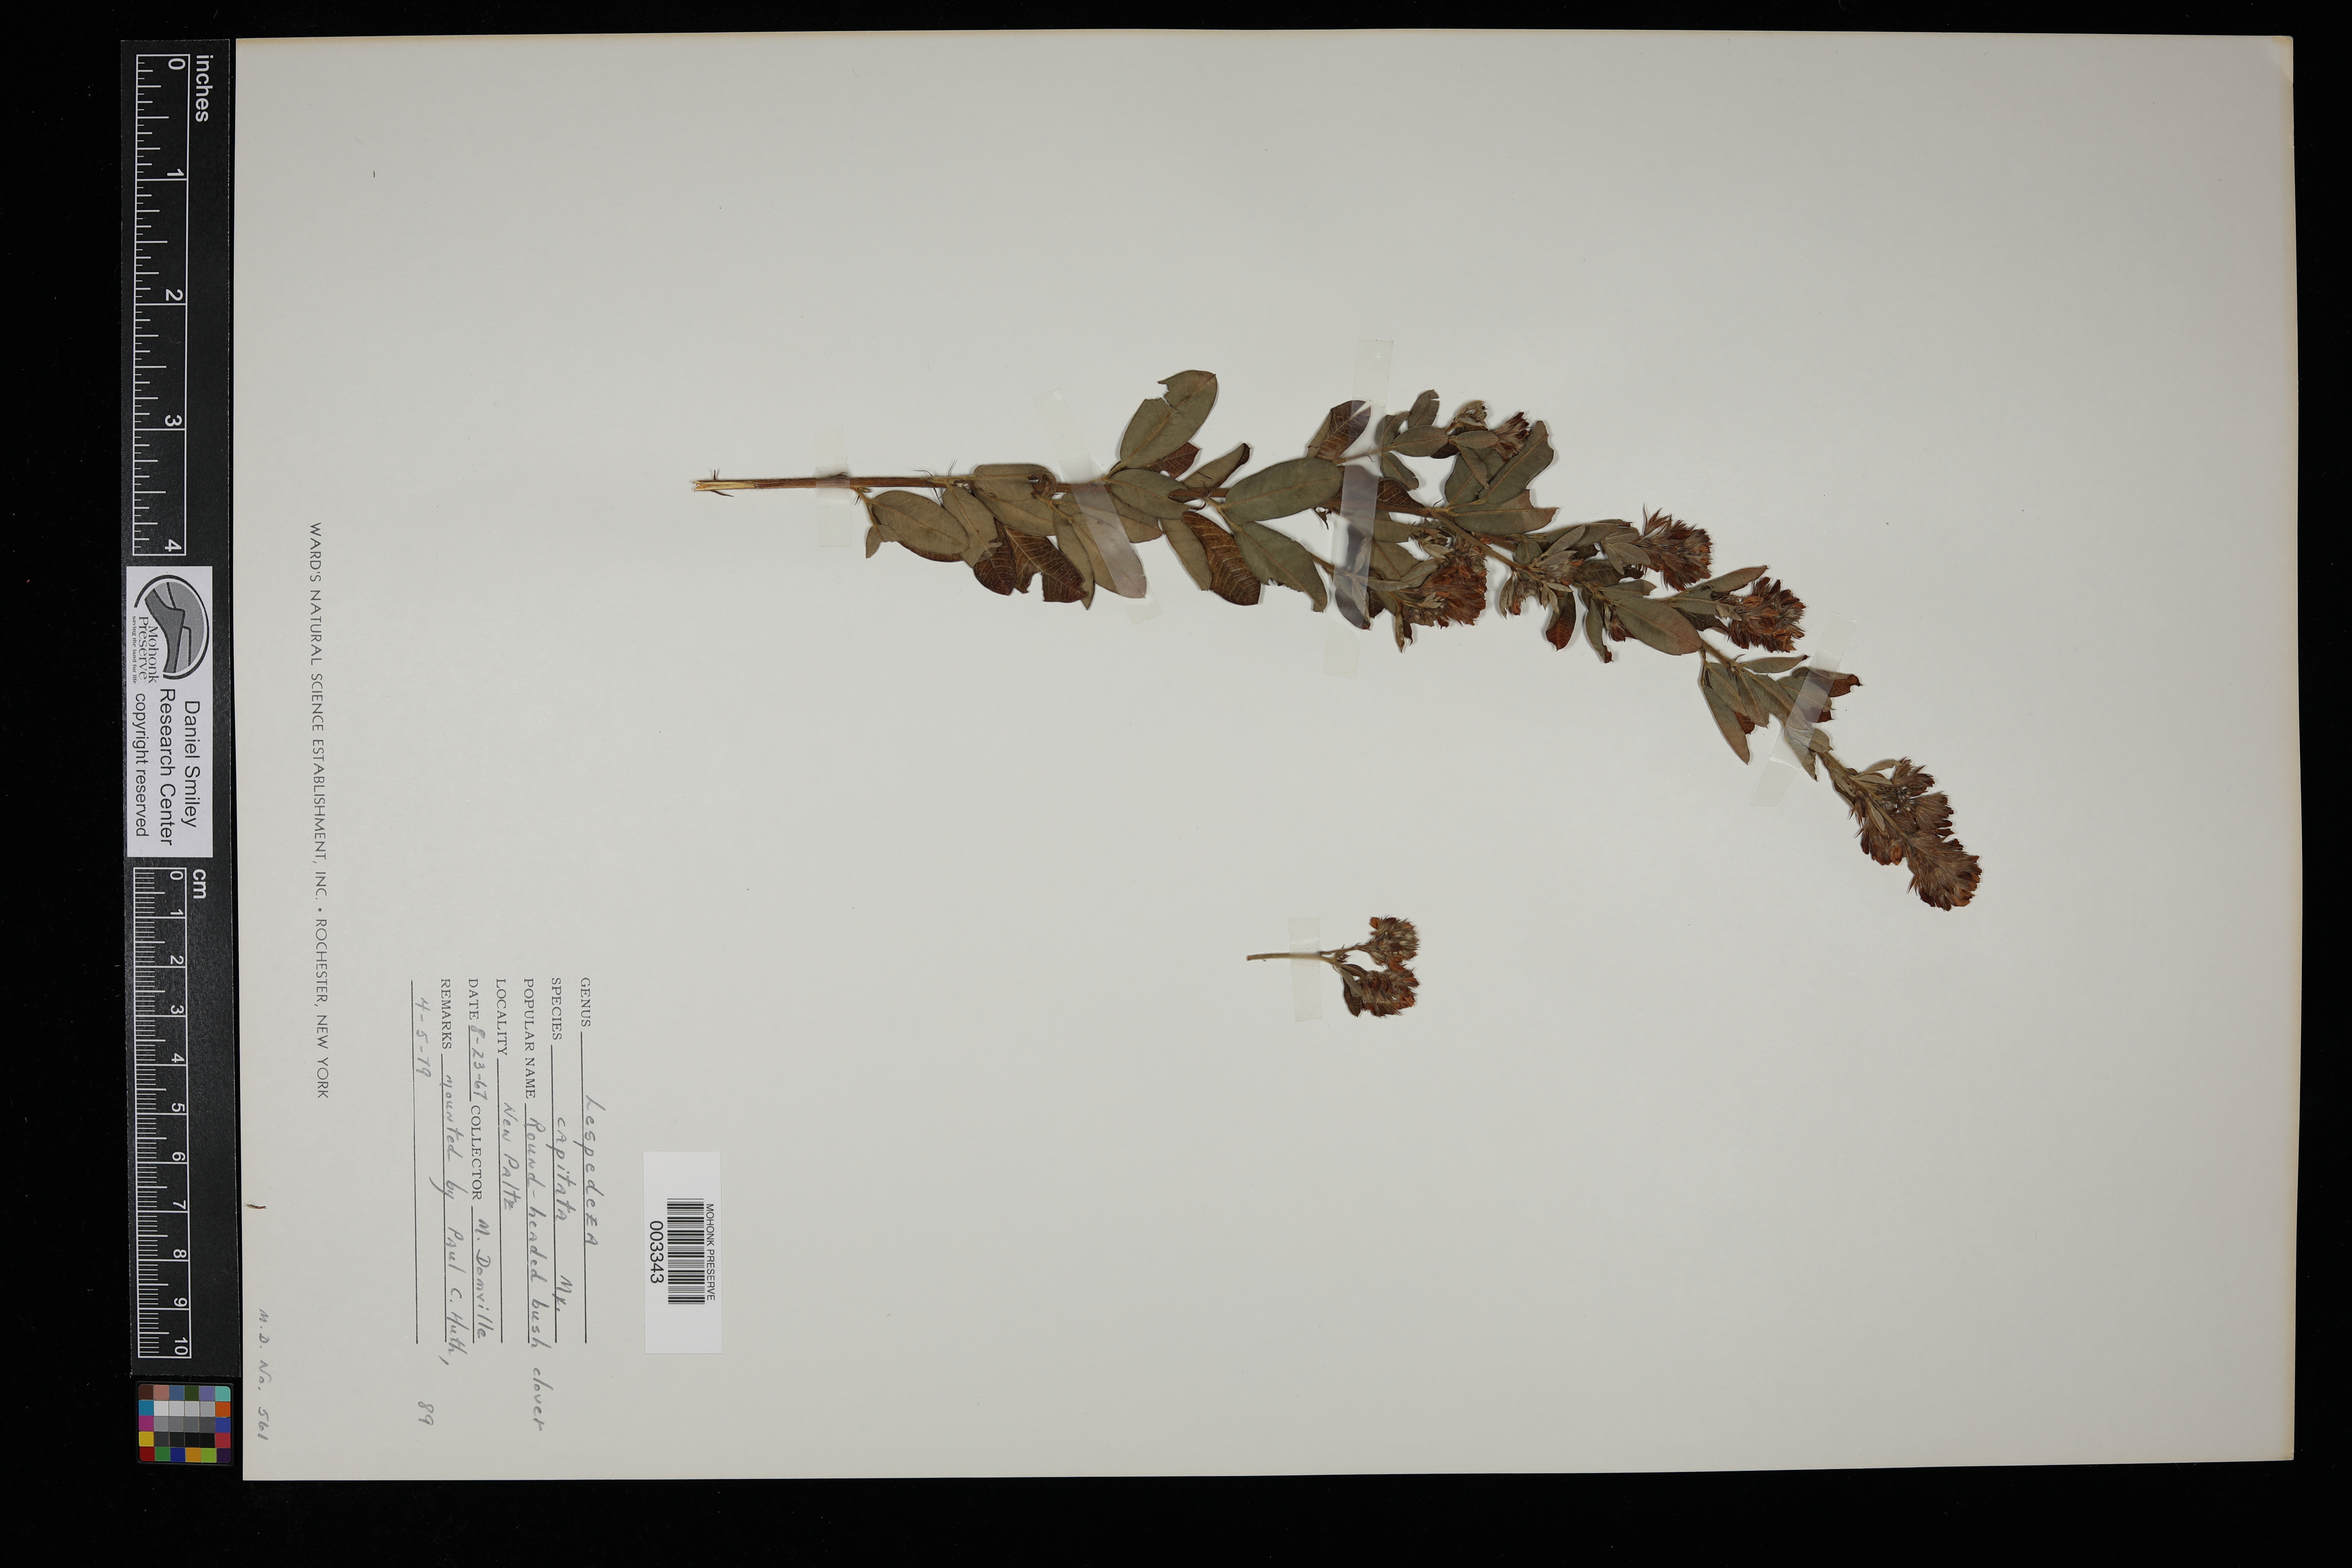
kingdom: Plantae
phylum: Tracheophyta
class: Magnoliopsida
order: Fabales
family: Fabaceae
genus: Lespedeza
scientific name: Lespedeza capitata
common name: Dusty clover
